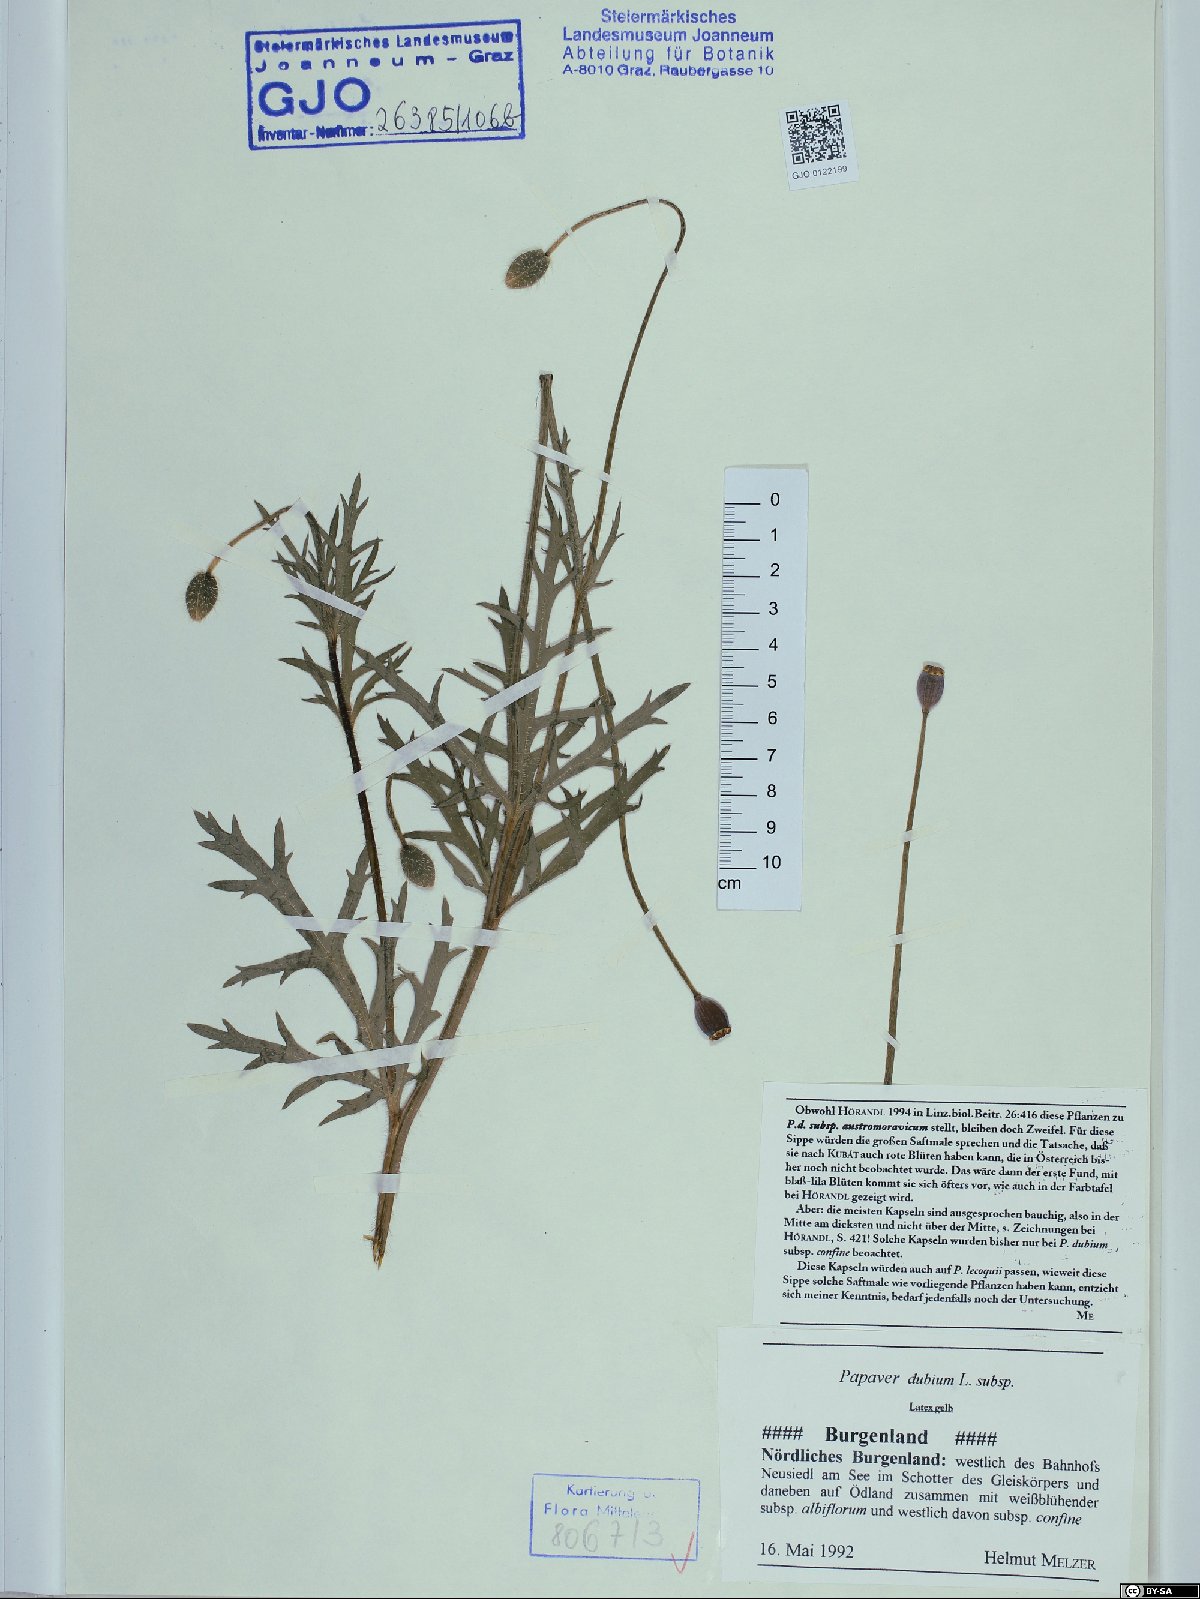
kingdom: Plantae
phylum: Tracheophyta
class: Magnoliopsida
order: Ranunculales
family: Papaveraceae
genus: Papaver
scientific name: Papaver dubium
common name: Long-headed poppy
